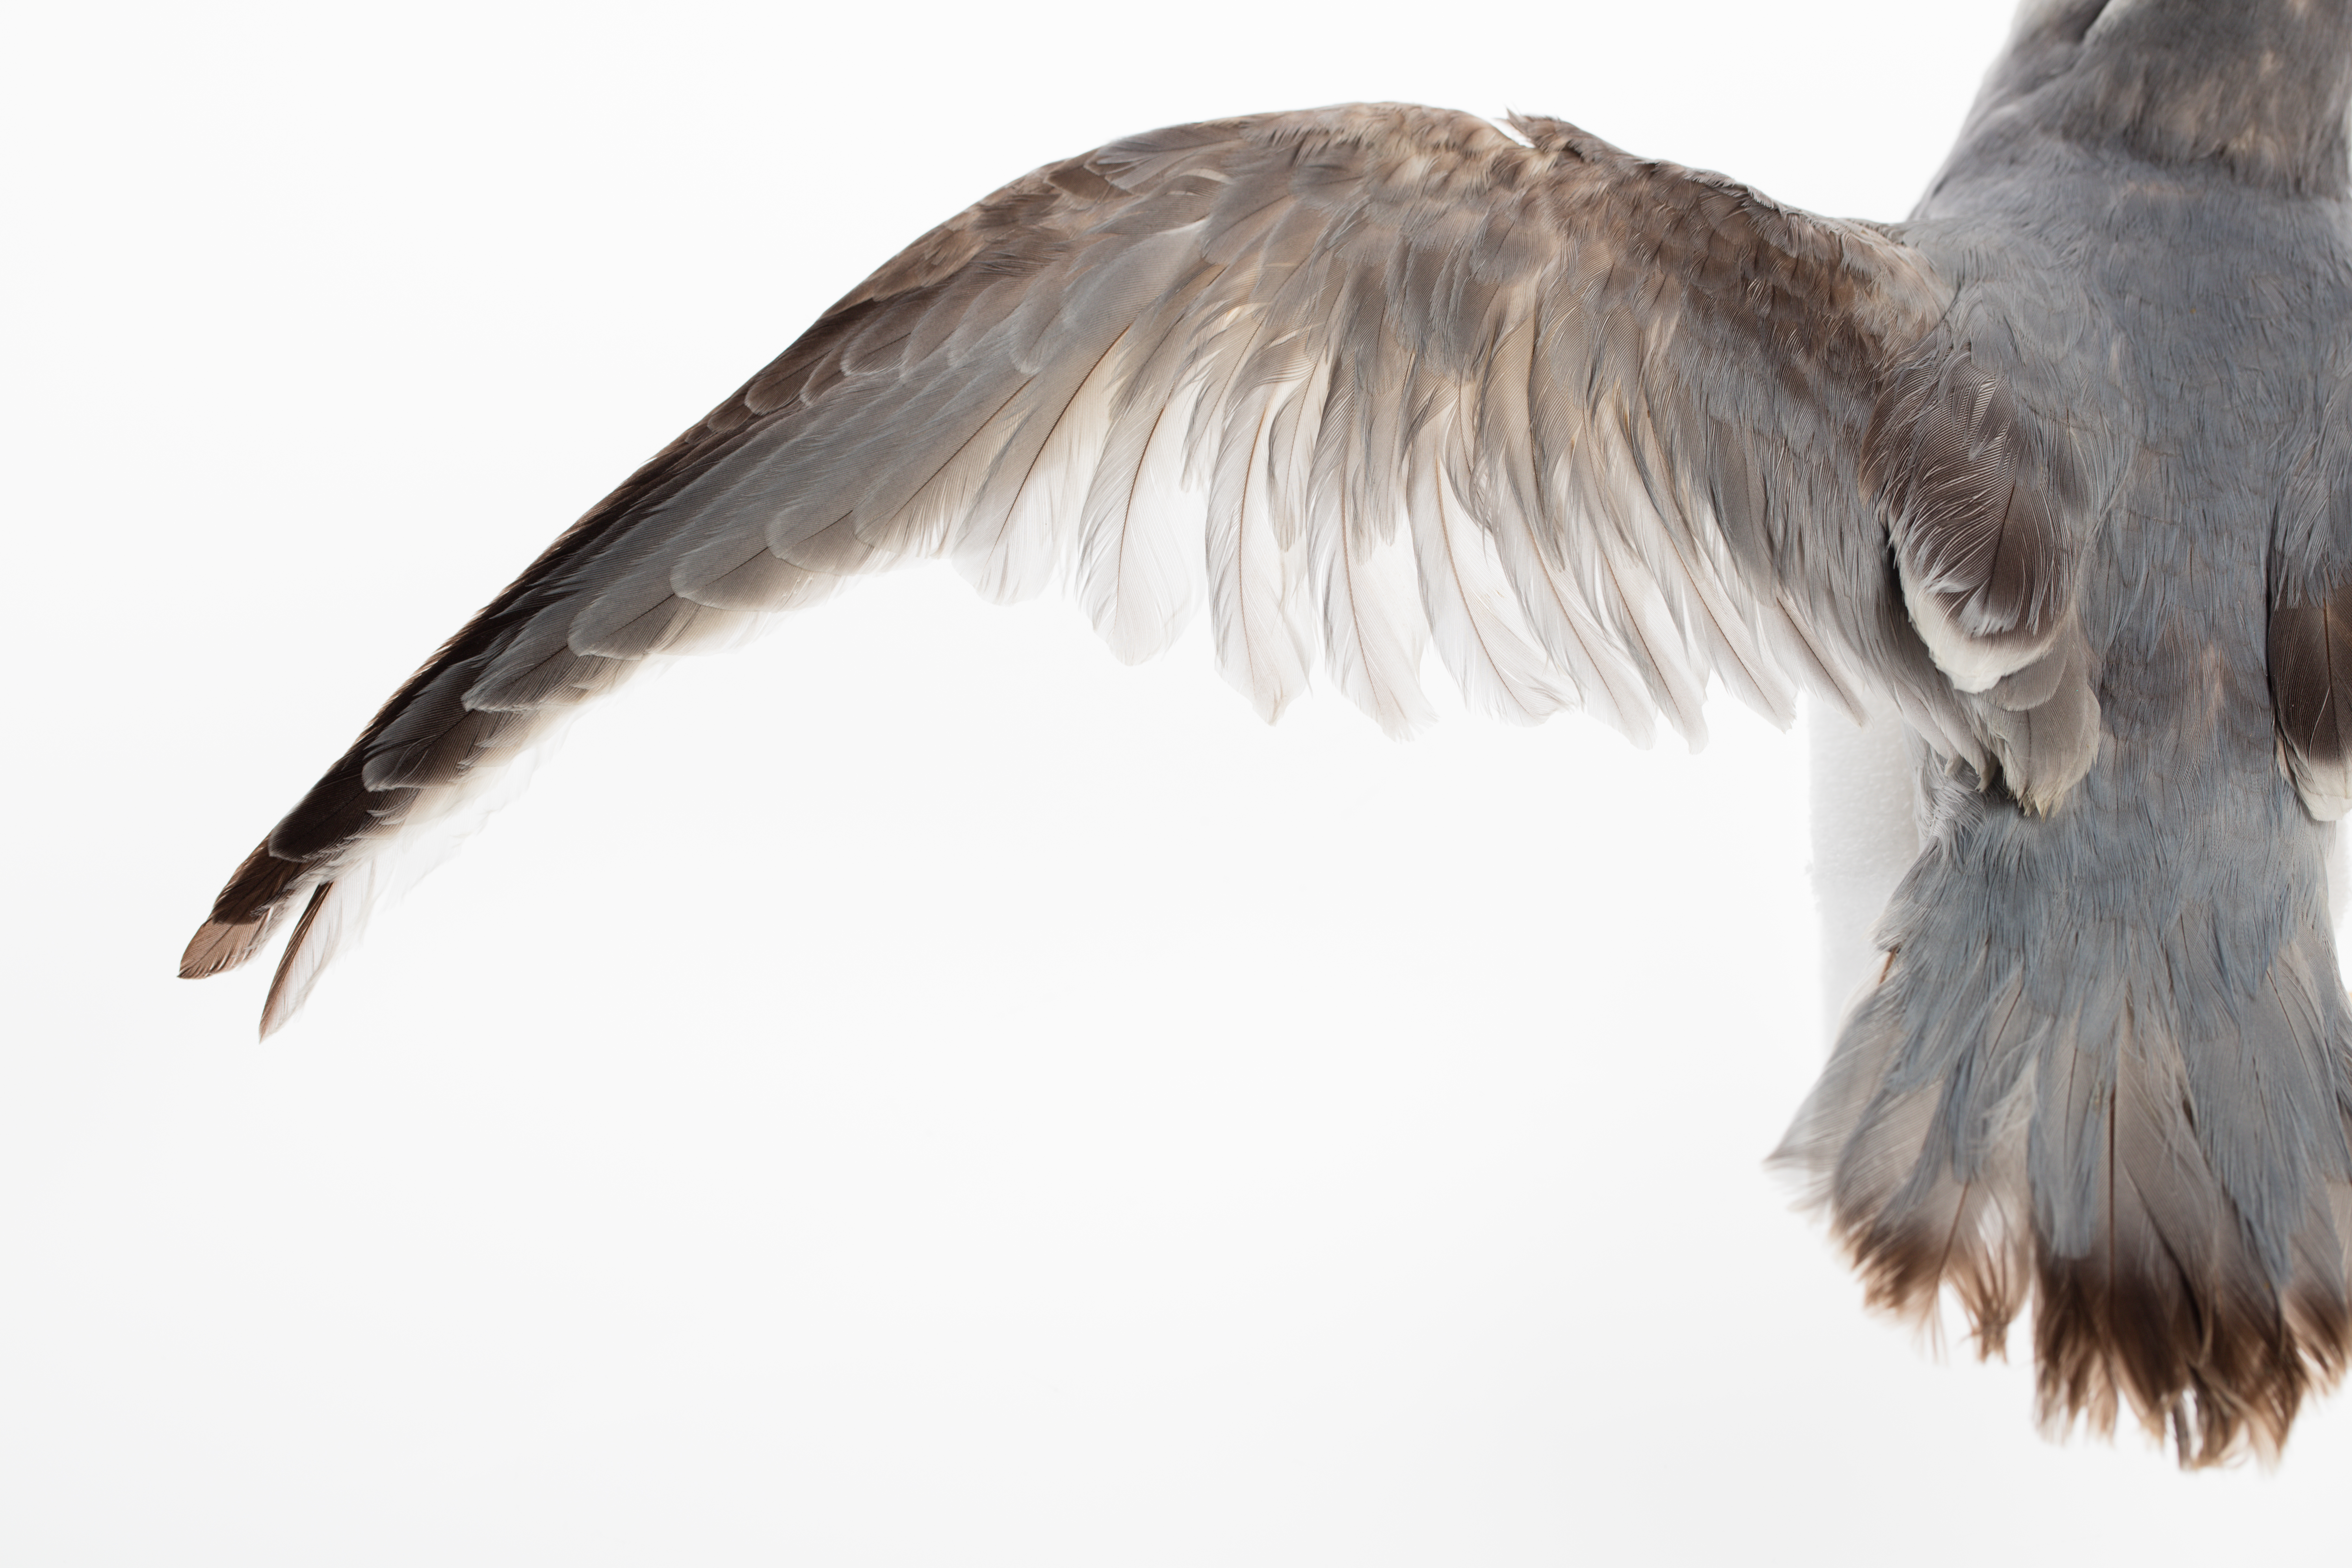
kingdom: Animalia
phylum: Chordata
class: Aves
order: Procellariiformes
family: Procellariidae
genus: Pachyptila
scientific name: Pachyptila desolata
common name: Antarctic prion
